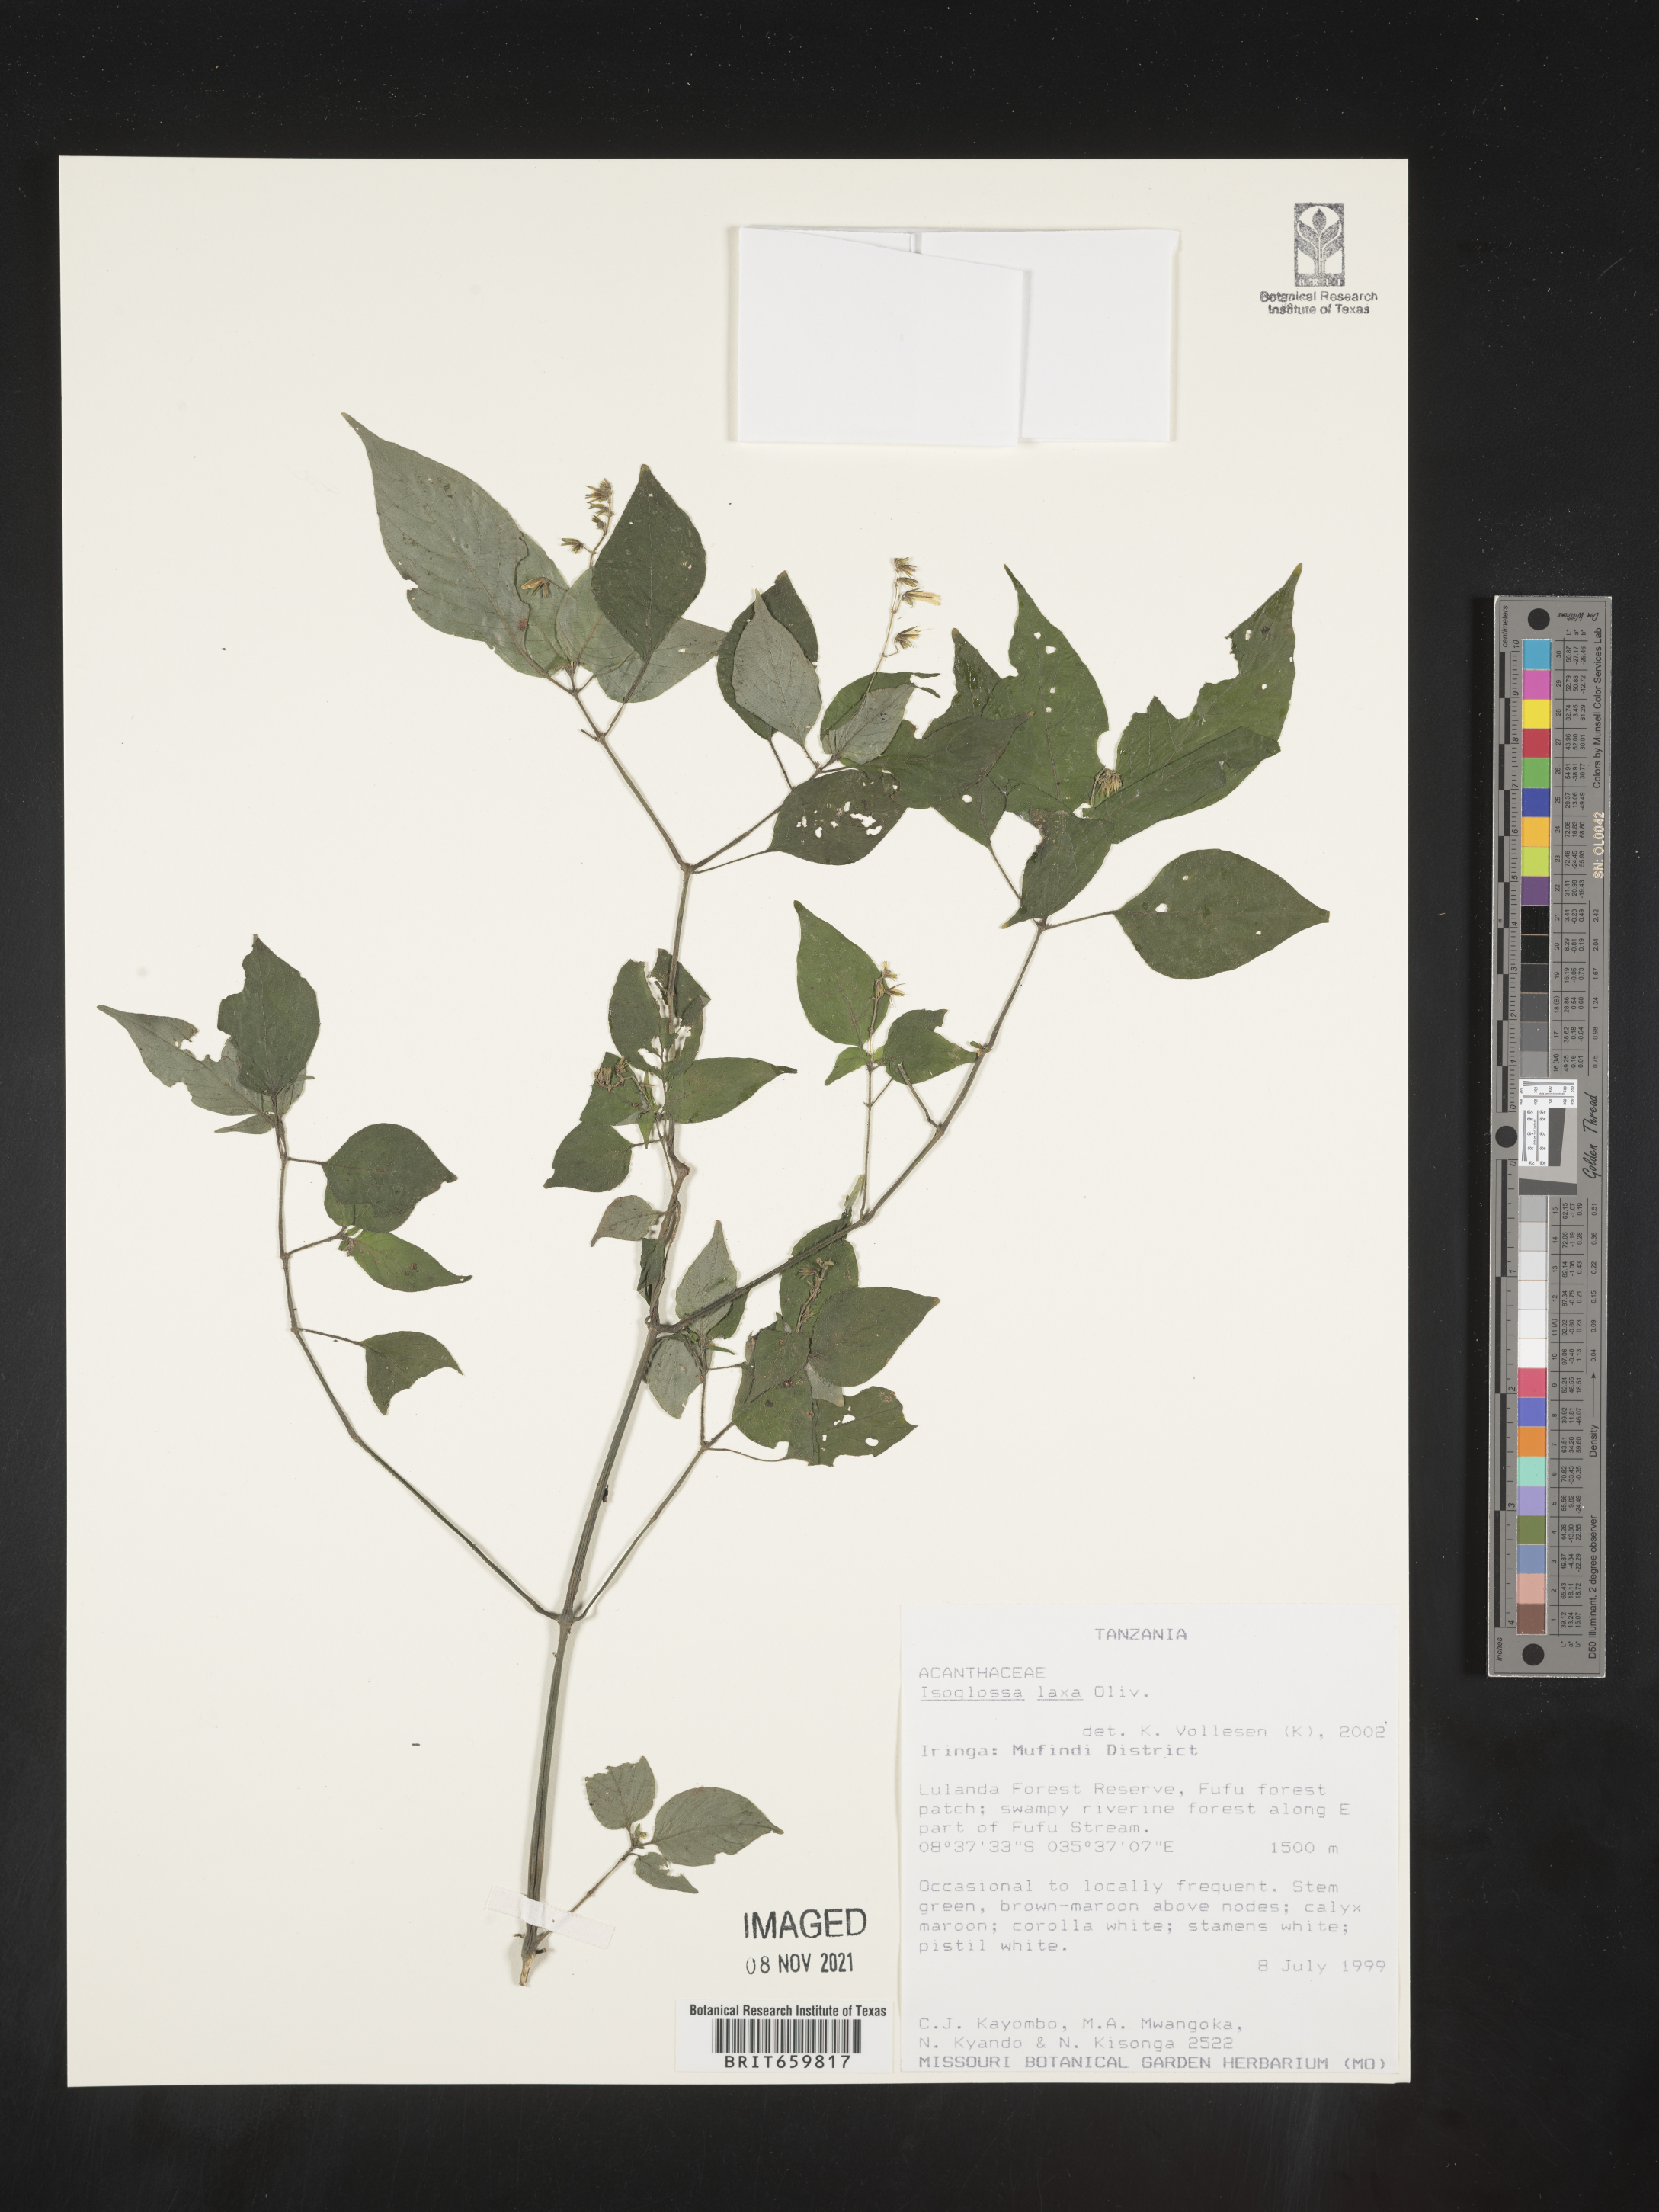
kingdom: Plantae
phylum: Tracheophyta
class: Magnoliopsida
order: Lamiales
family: Acanthaceae
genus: Isoglossa
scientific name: Isoglossa laxa
